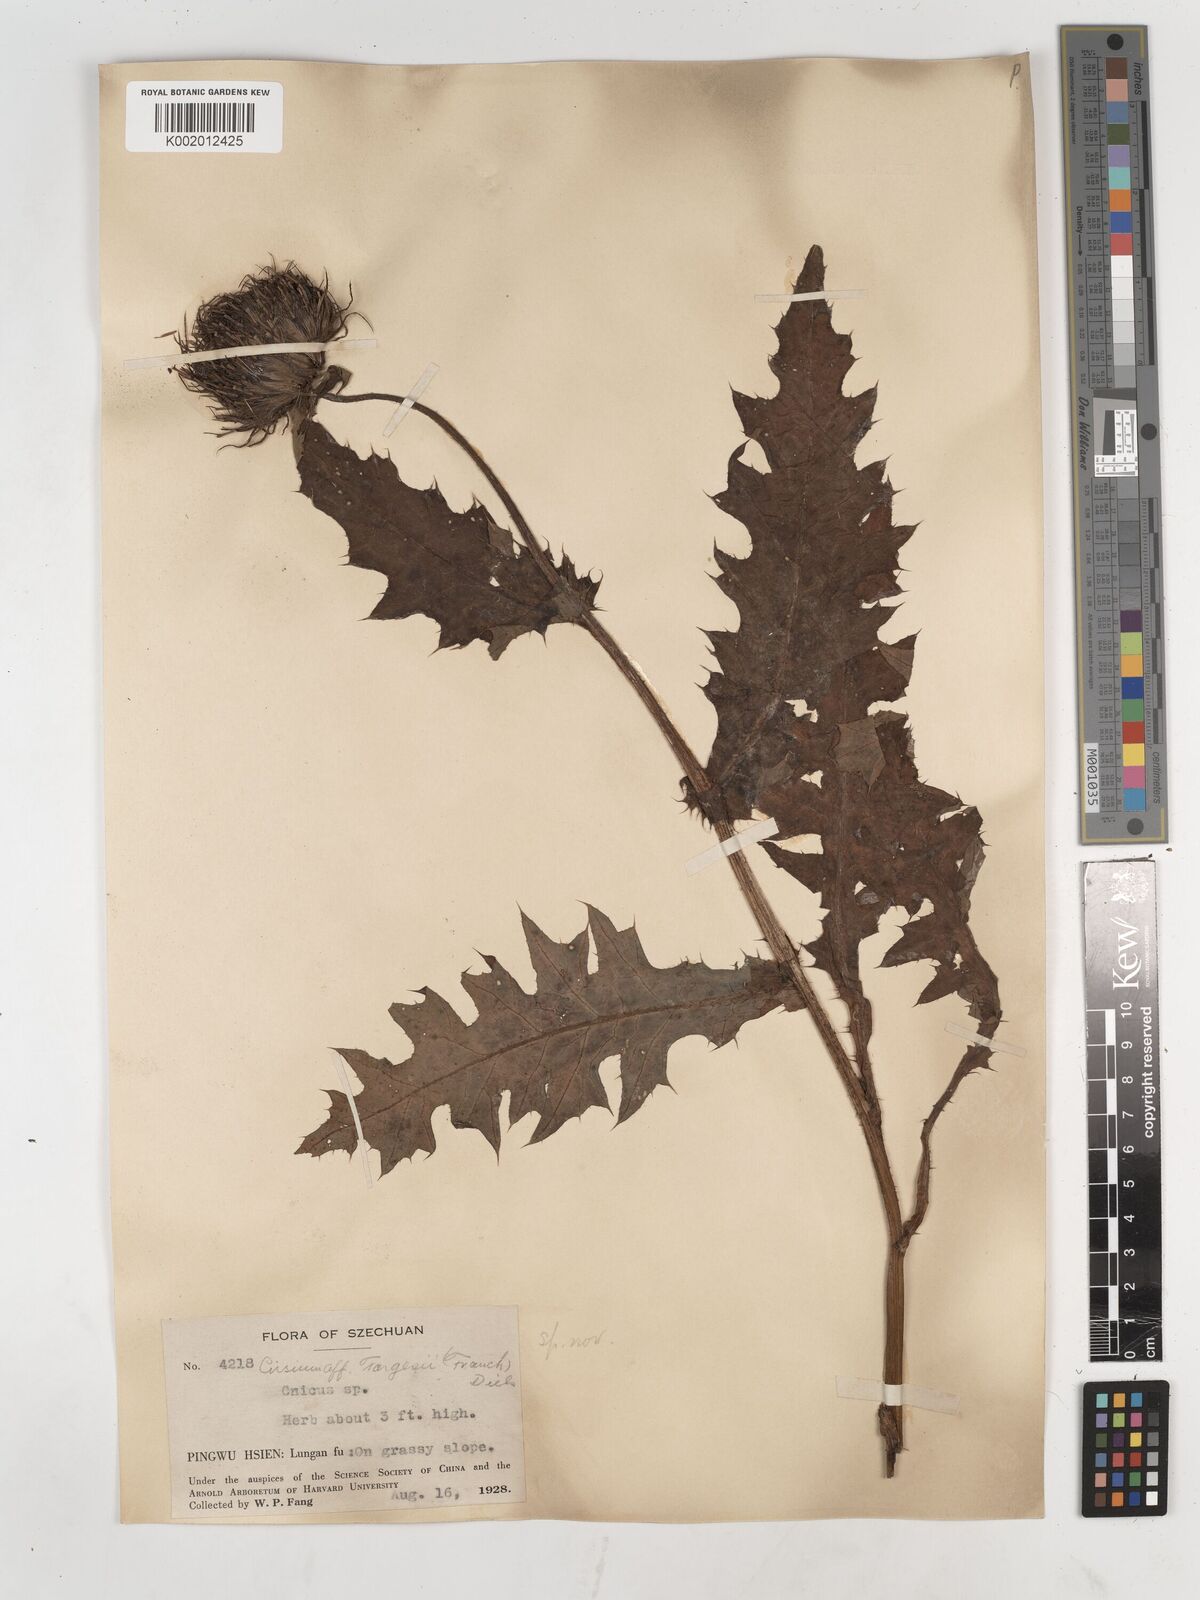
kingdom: Plantae
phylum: Tracheophyta
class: Magnoliopsida
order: Asterales
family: Asteraceae
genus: Cirsium
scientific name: Cirsium
